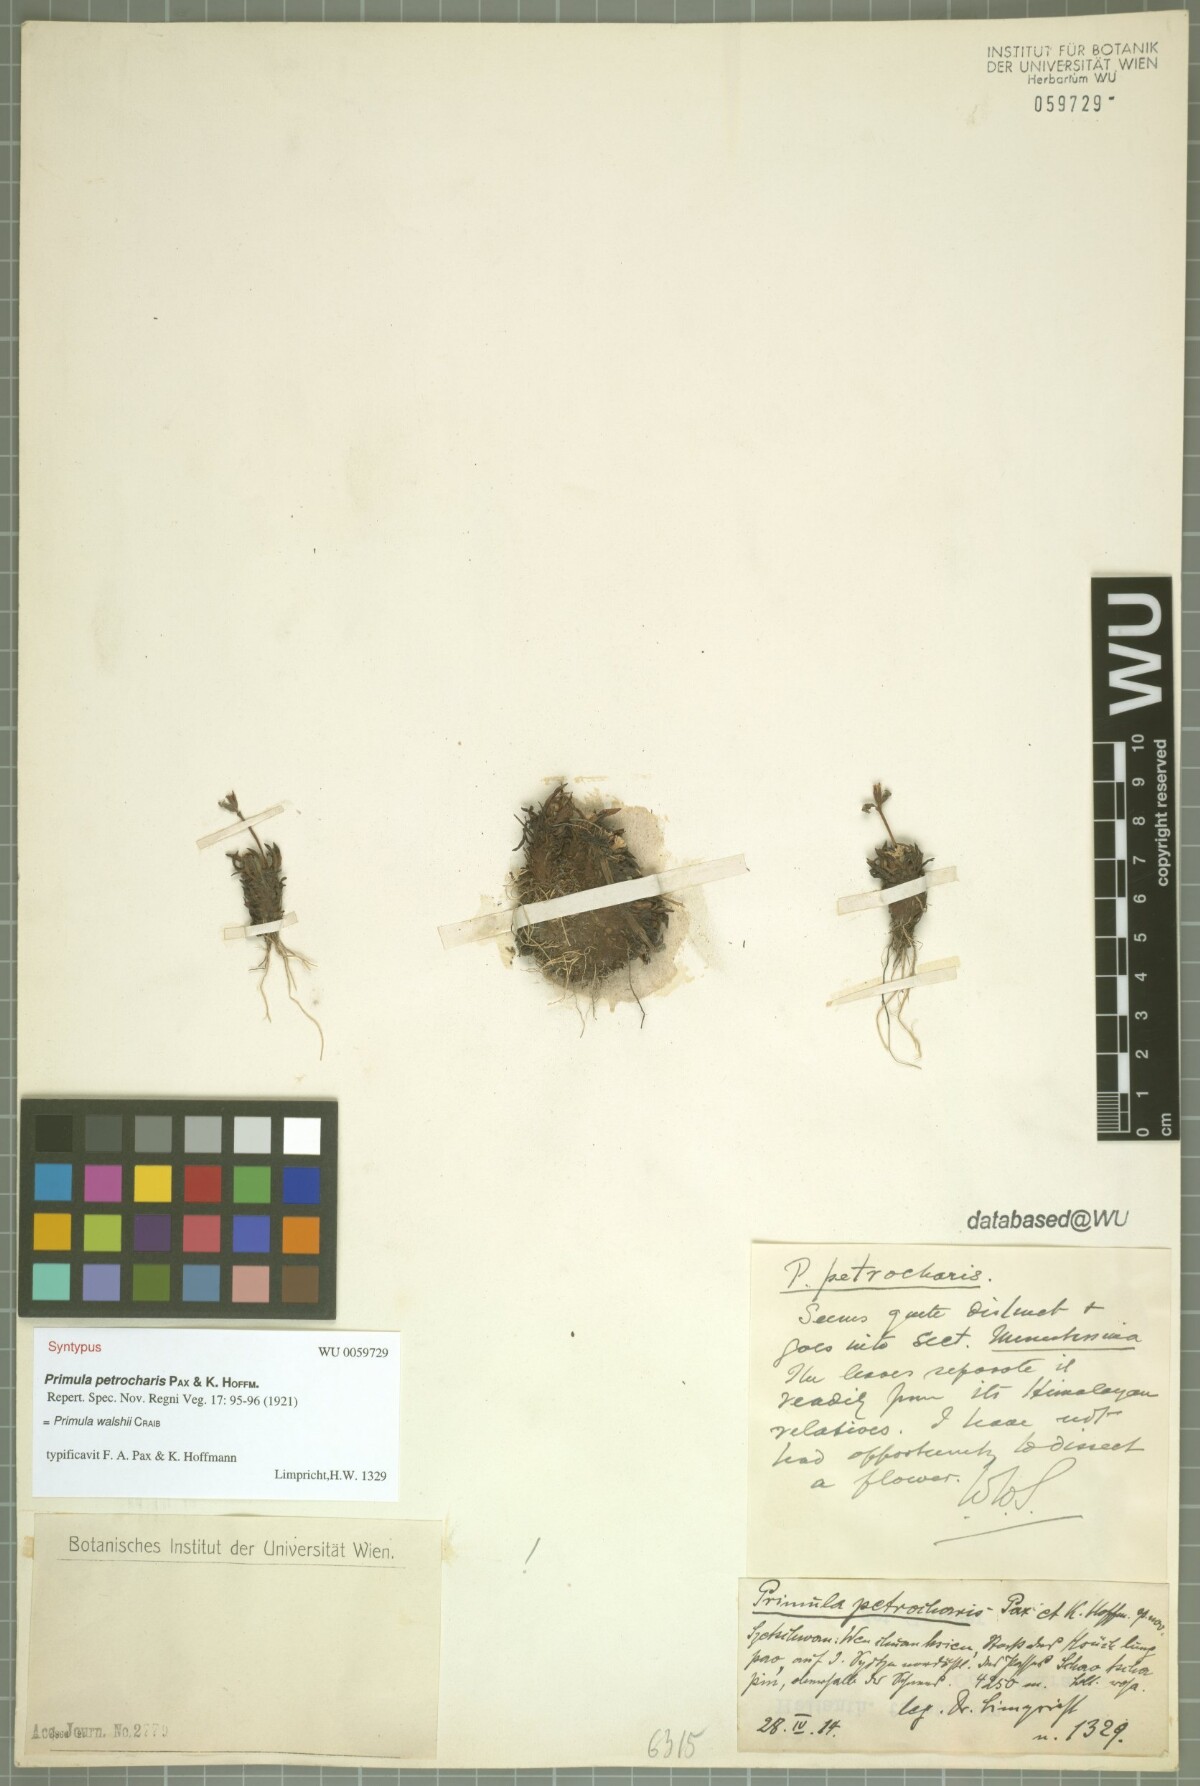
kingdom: Plantae
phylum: Tracheophyta
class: Magnoliopsida
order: Ericales
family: Primulaceae
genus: Primula
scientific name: Primula walshii
